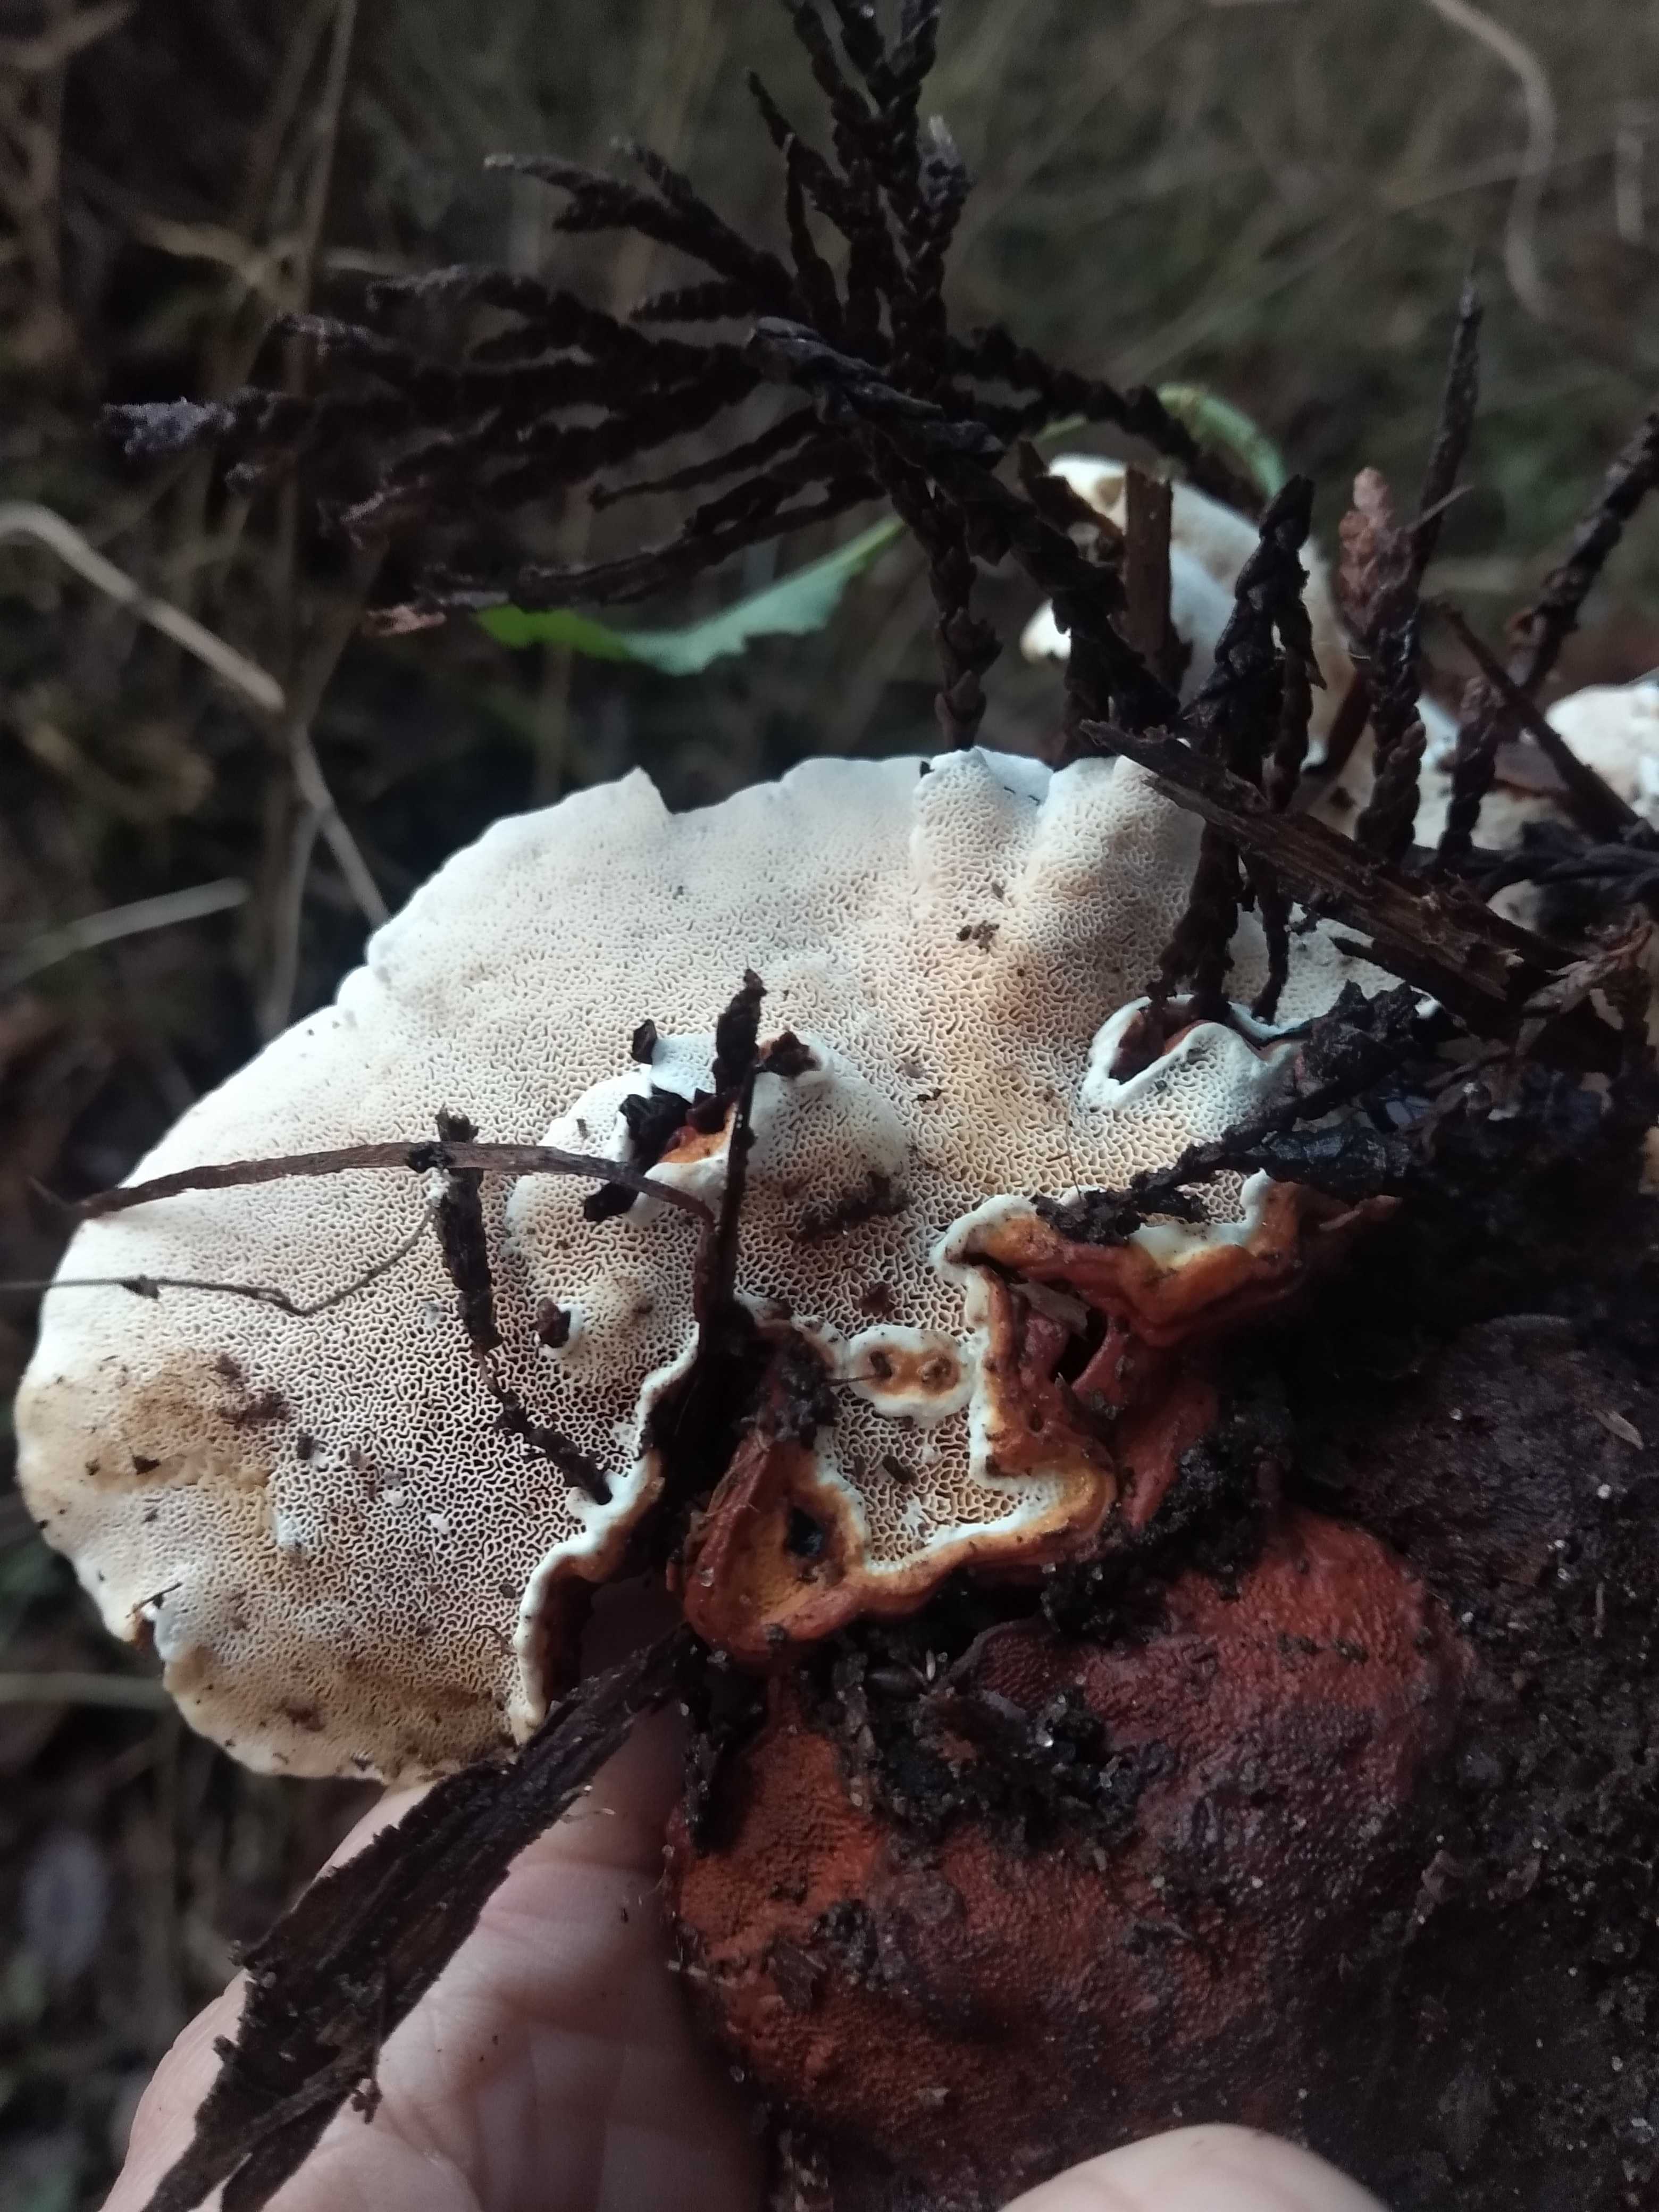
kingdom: Fungi
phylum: Basidiomycota
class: Agaricomycetes
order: Russulales
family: Bondarzewiaceae
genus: Heterobasidion
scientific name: Heterobasidion annosum
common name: almindelig rodfordærver
